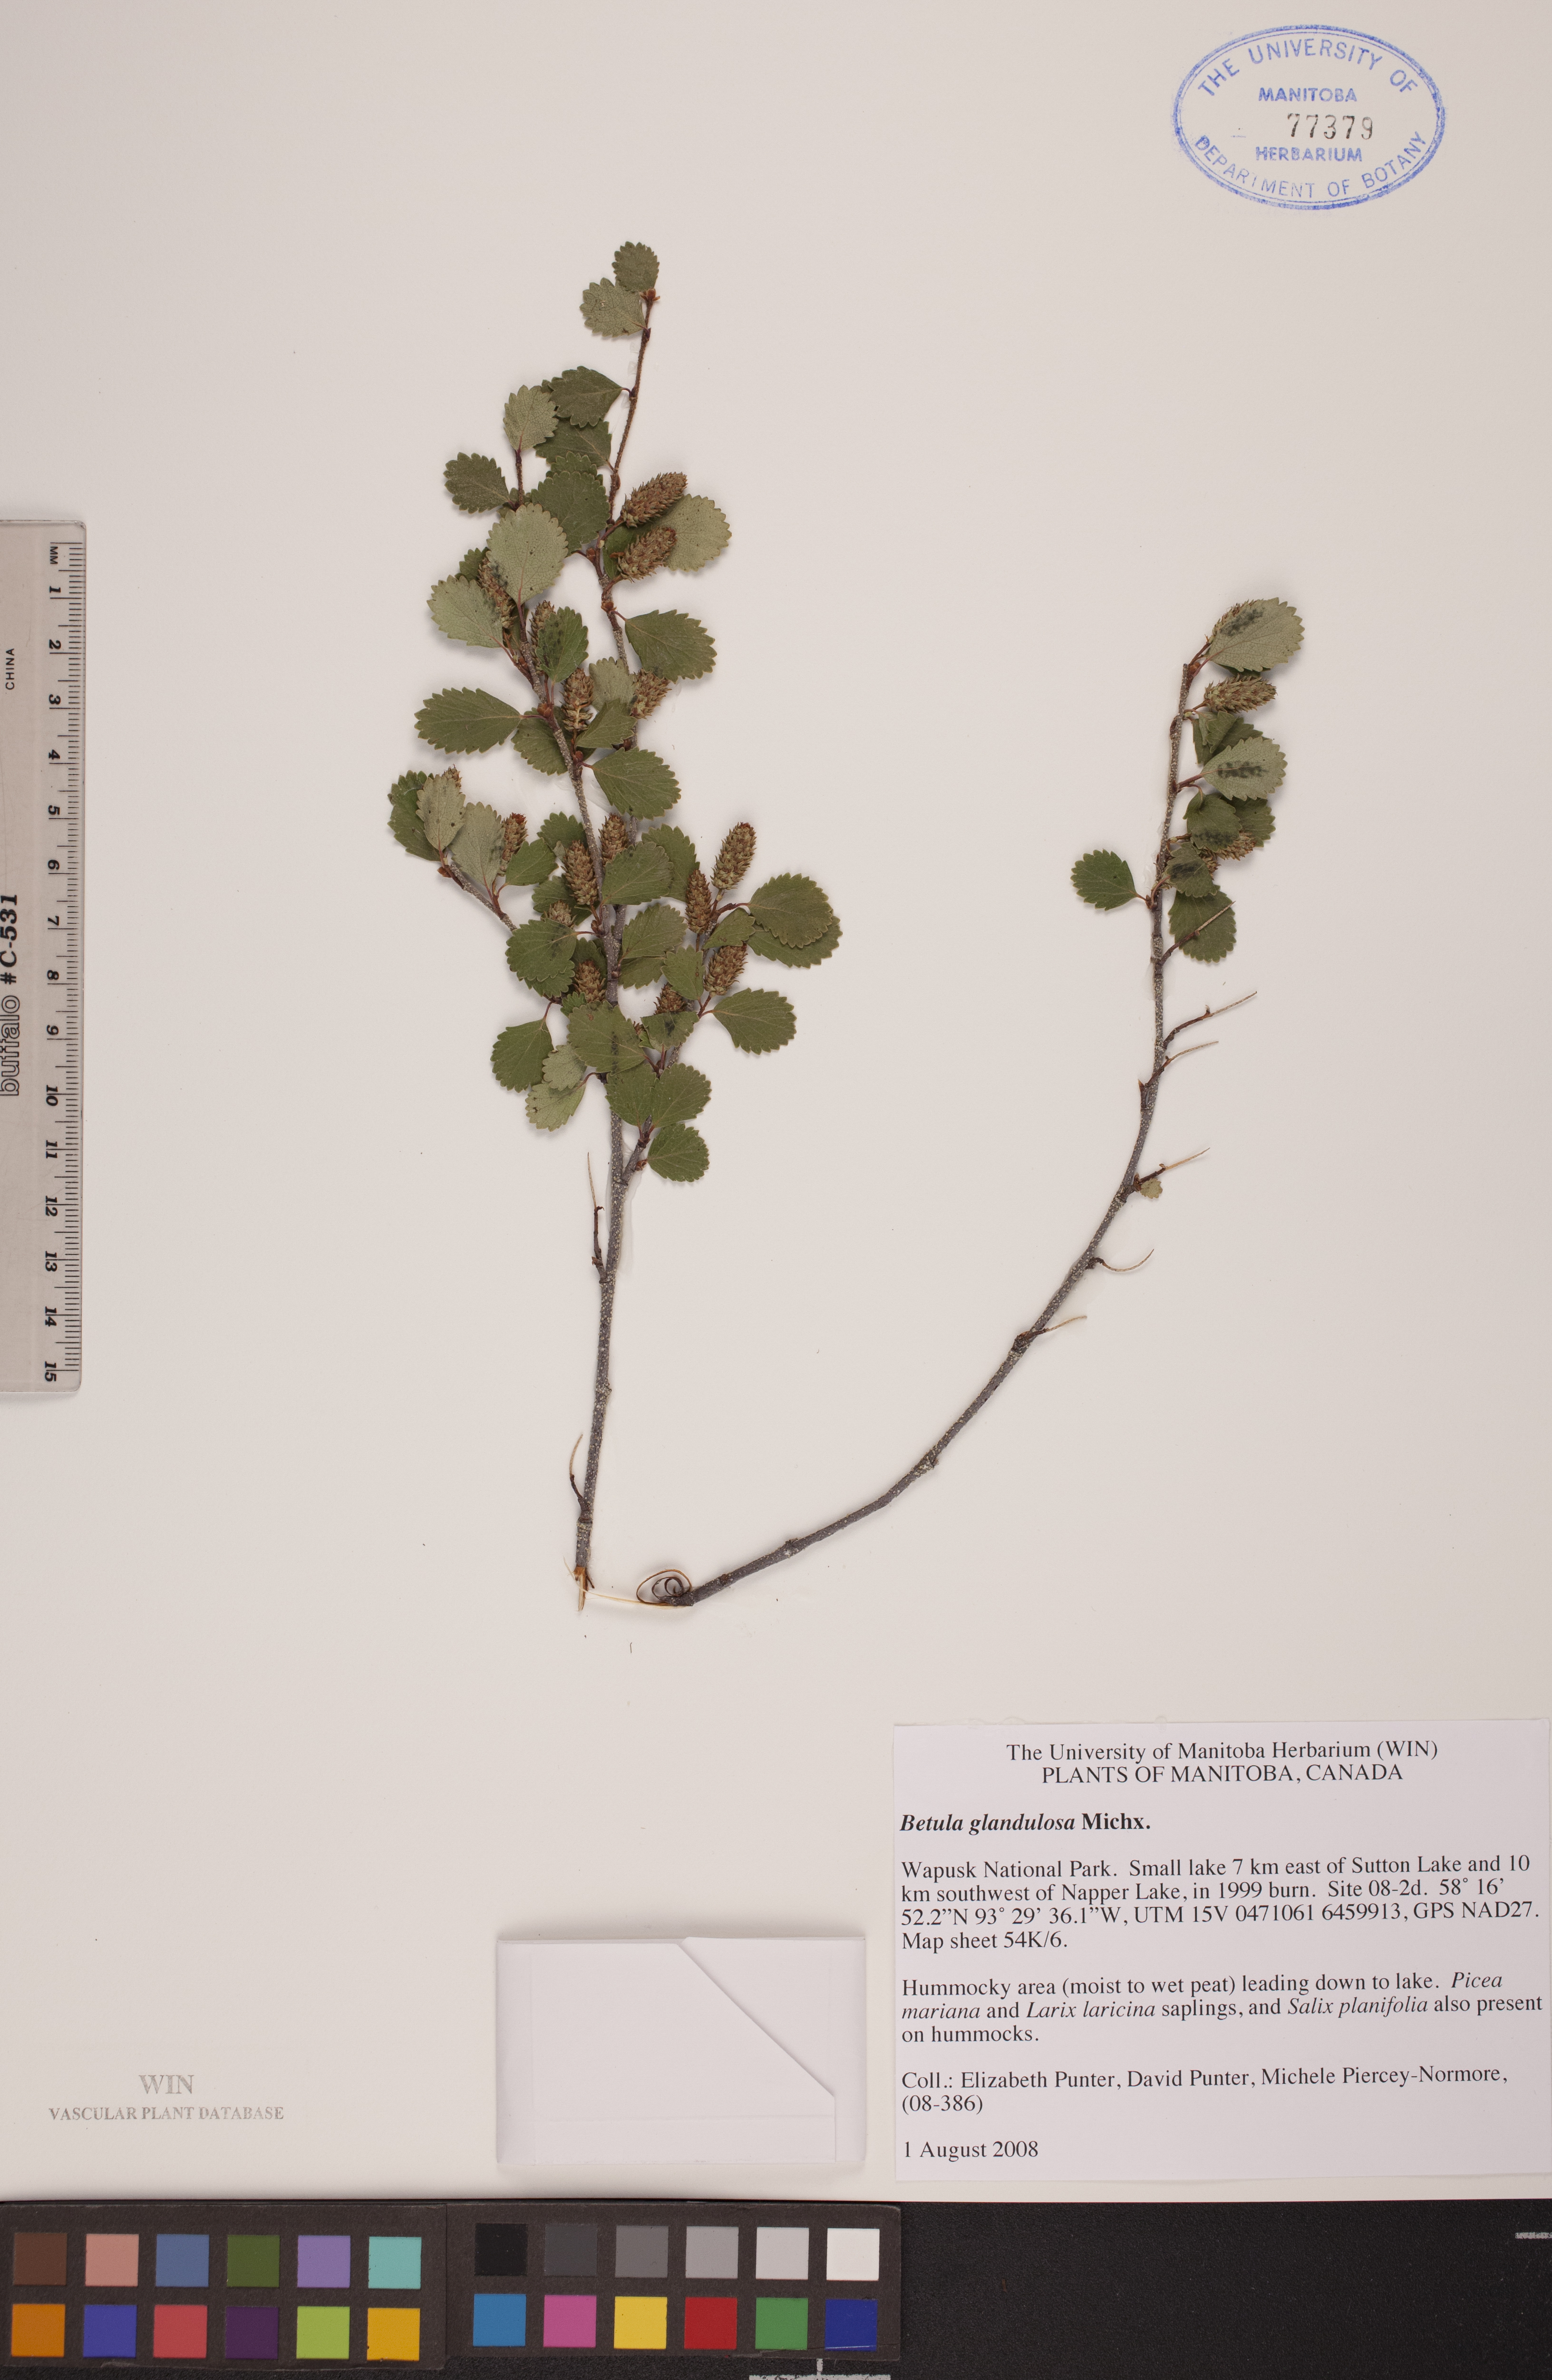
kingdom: Plantae
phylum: Tracheophyta
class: Magnoliopsida
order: Fagales
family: Betulaceae
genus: Betula
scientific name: Betula glandulosa
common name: Dwarf birch
